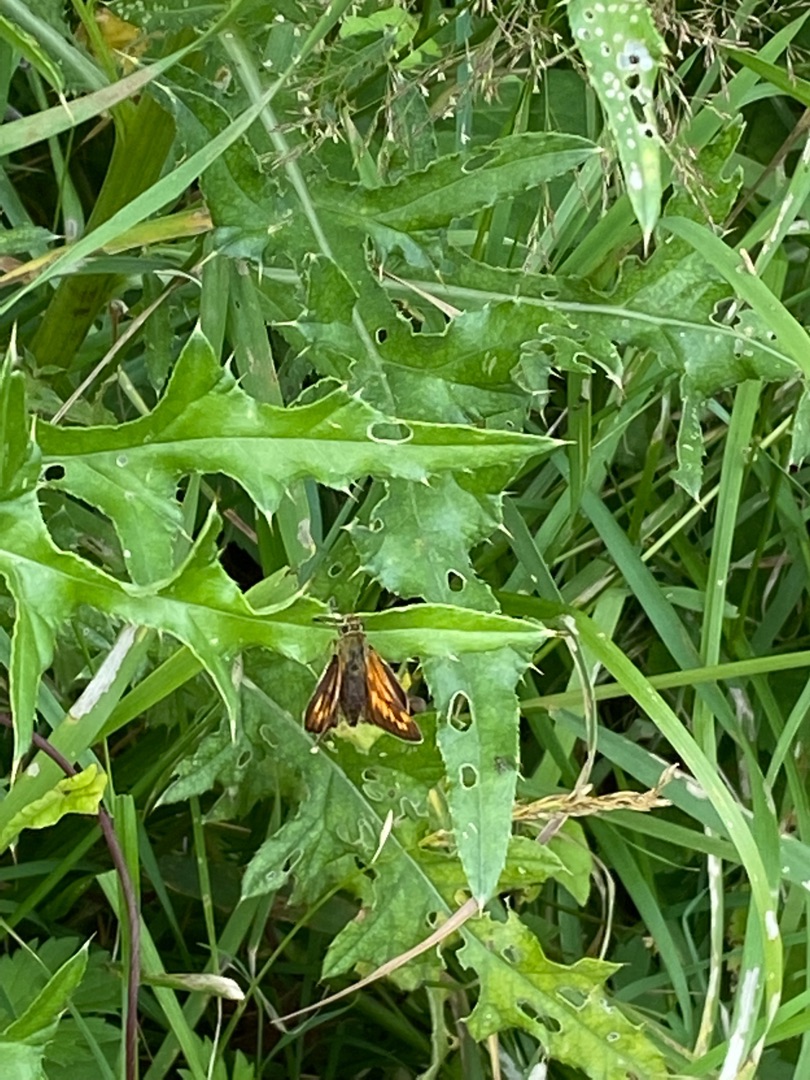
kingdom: Animalia
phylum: Arthropoda
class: Insecta
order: Lepidoptera
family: Hesperiidae
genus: Ochlodes
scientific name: Ochlodes venata
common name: Stor bredpande
